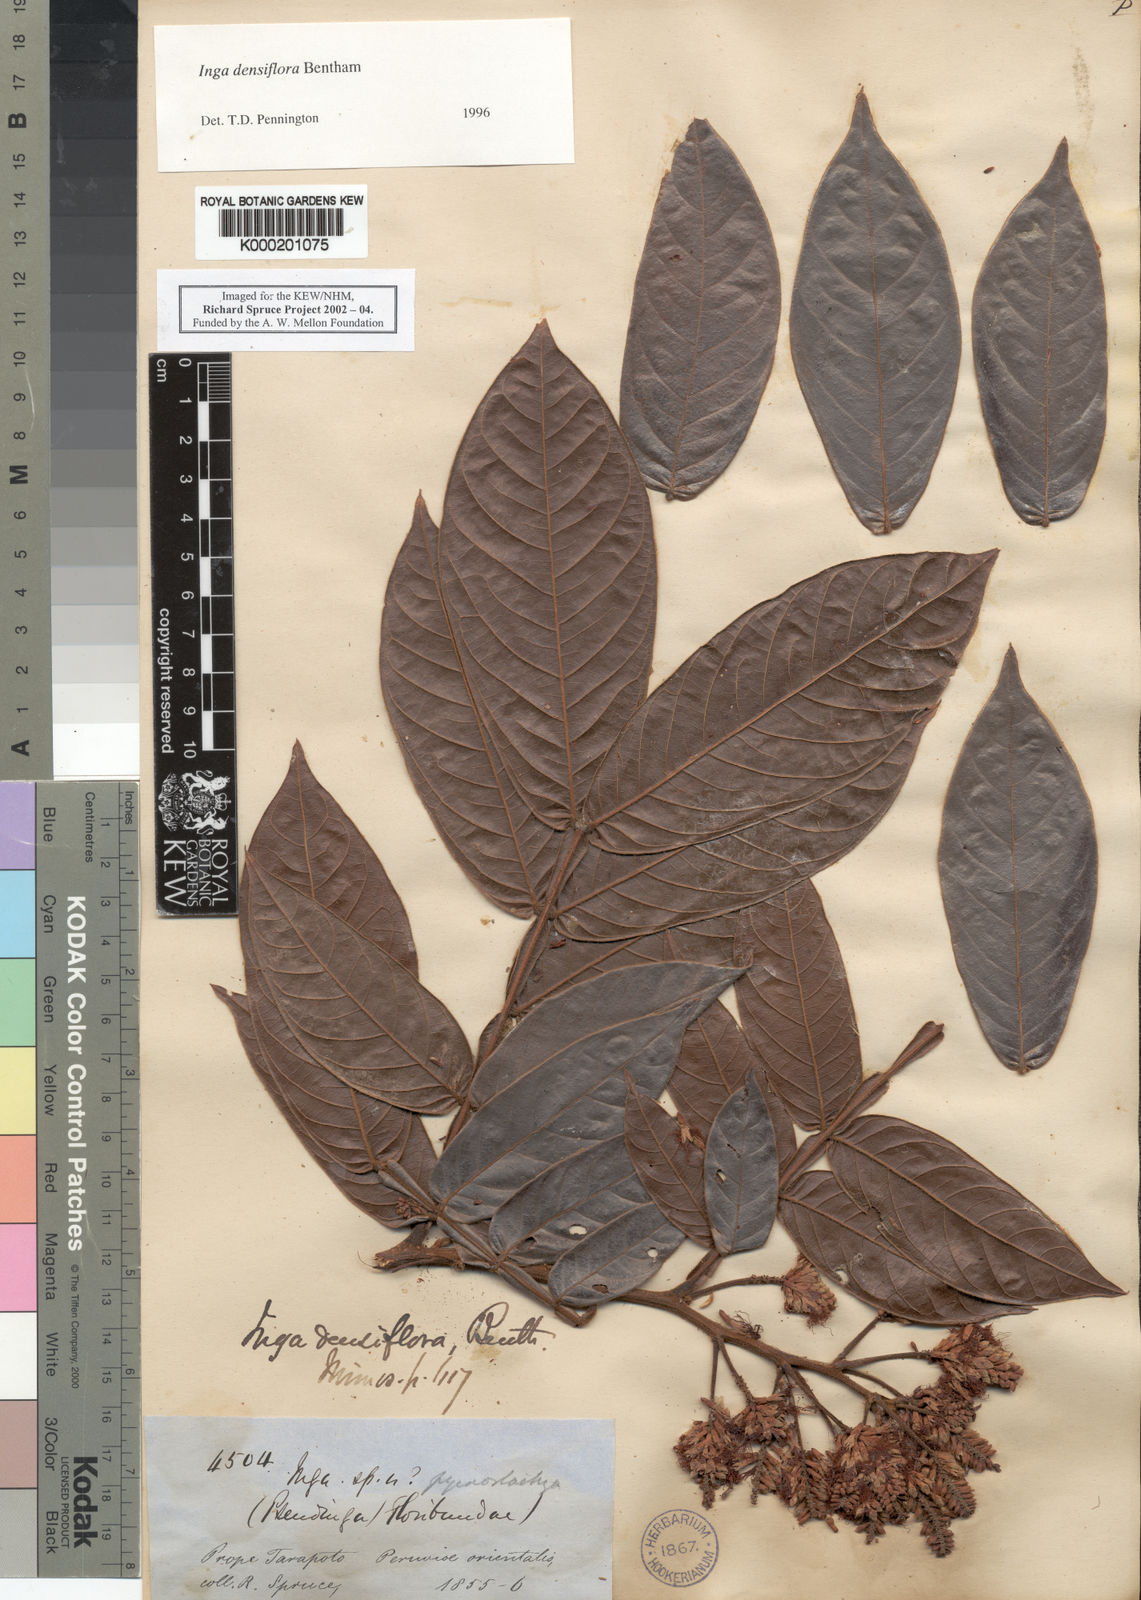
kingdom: Plantae
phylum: Tracheophyta
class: Magnoliopsida
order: Fabales
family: Fabaceae
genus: Inga
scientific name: Inga densiflora
